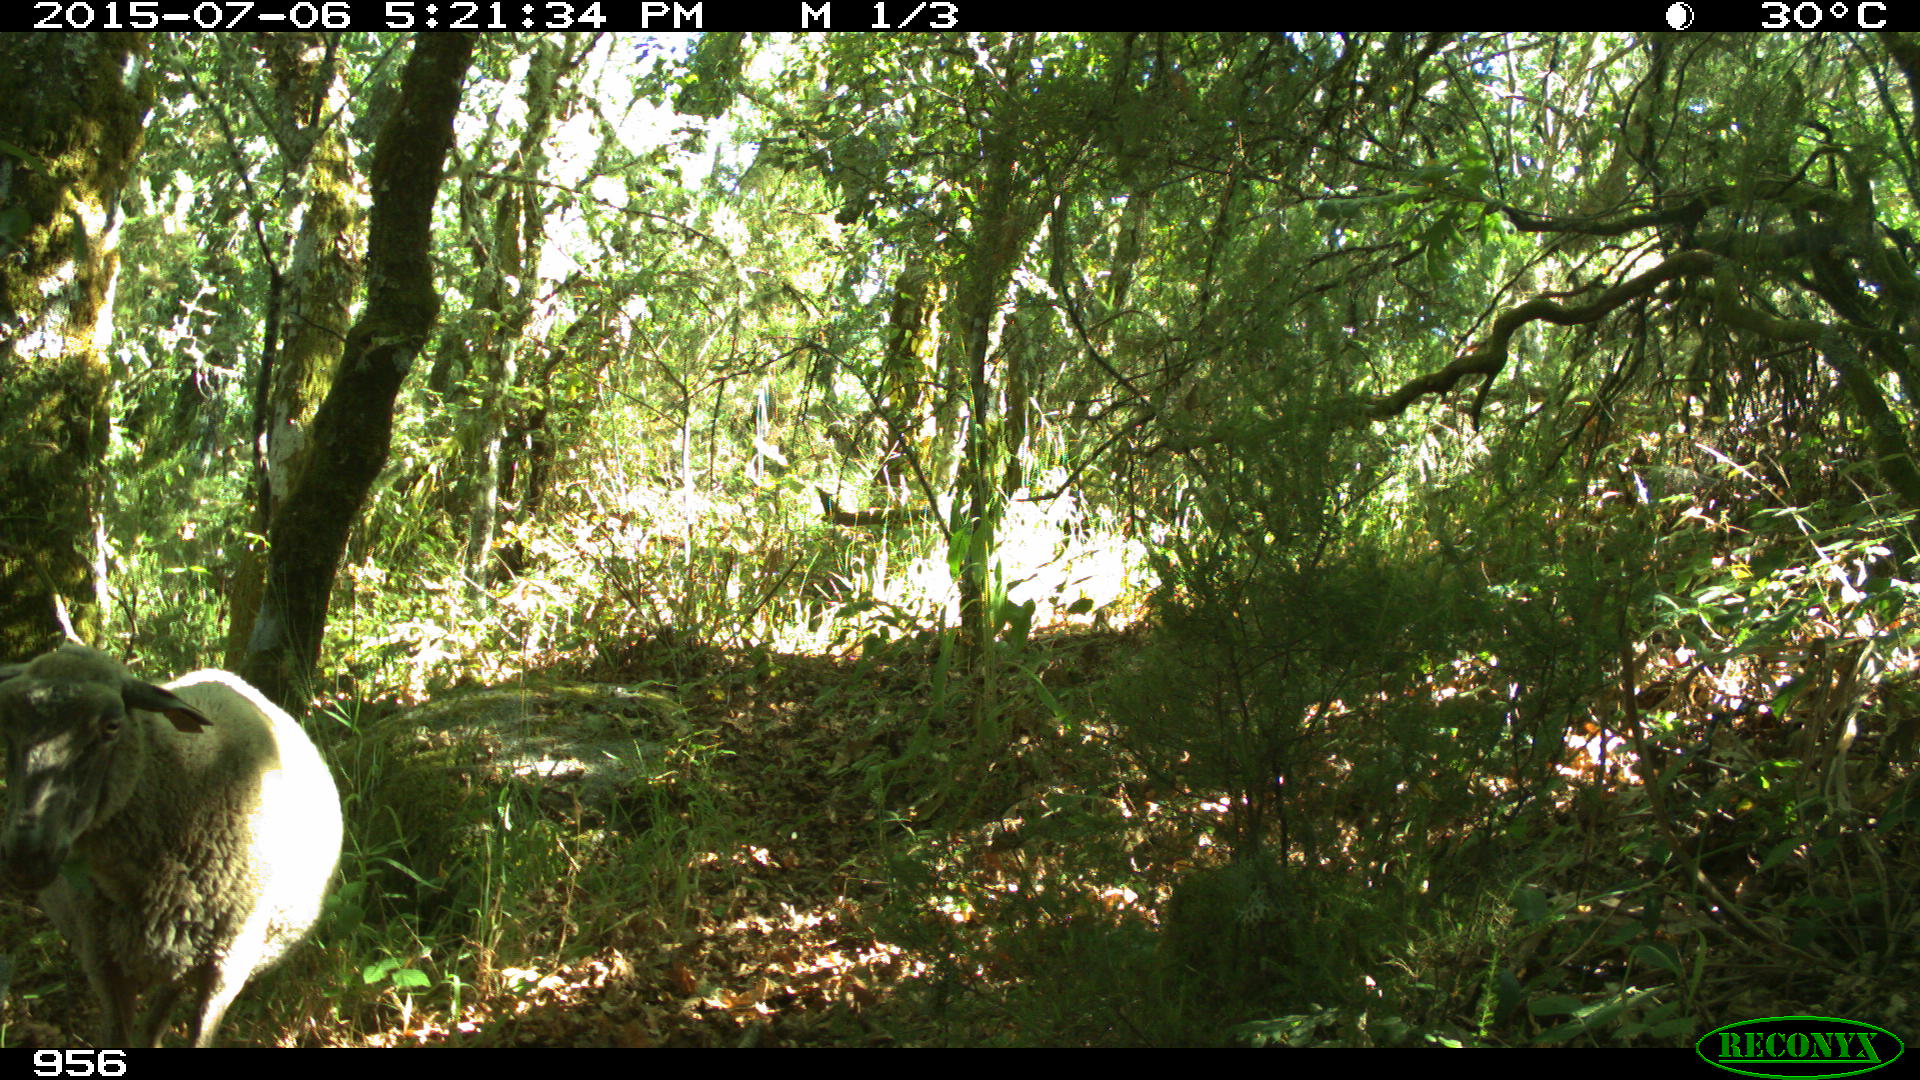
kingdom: Animalia
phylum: Chordata
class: Mammalia
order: Artiodactyla
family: Bovidae
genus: Ovis
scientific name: Ovis aries
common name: Domestic sheep
